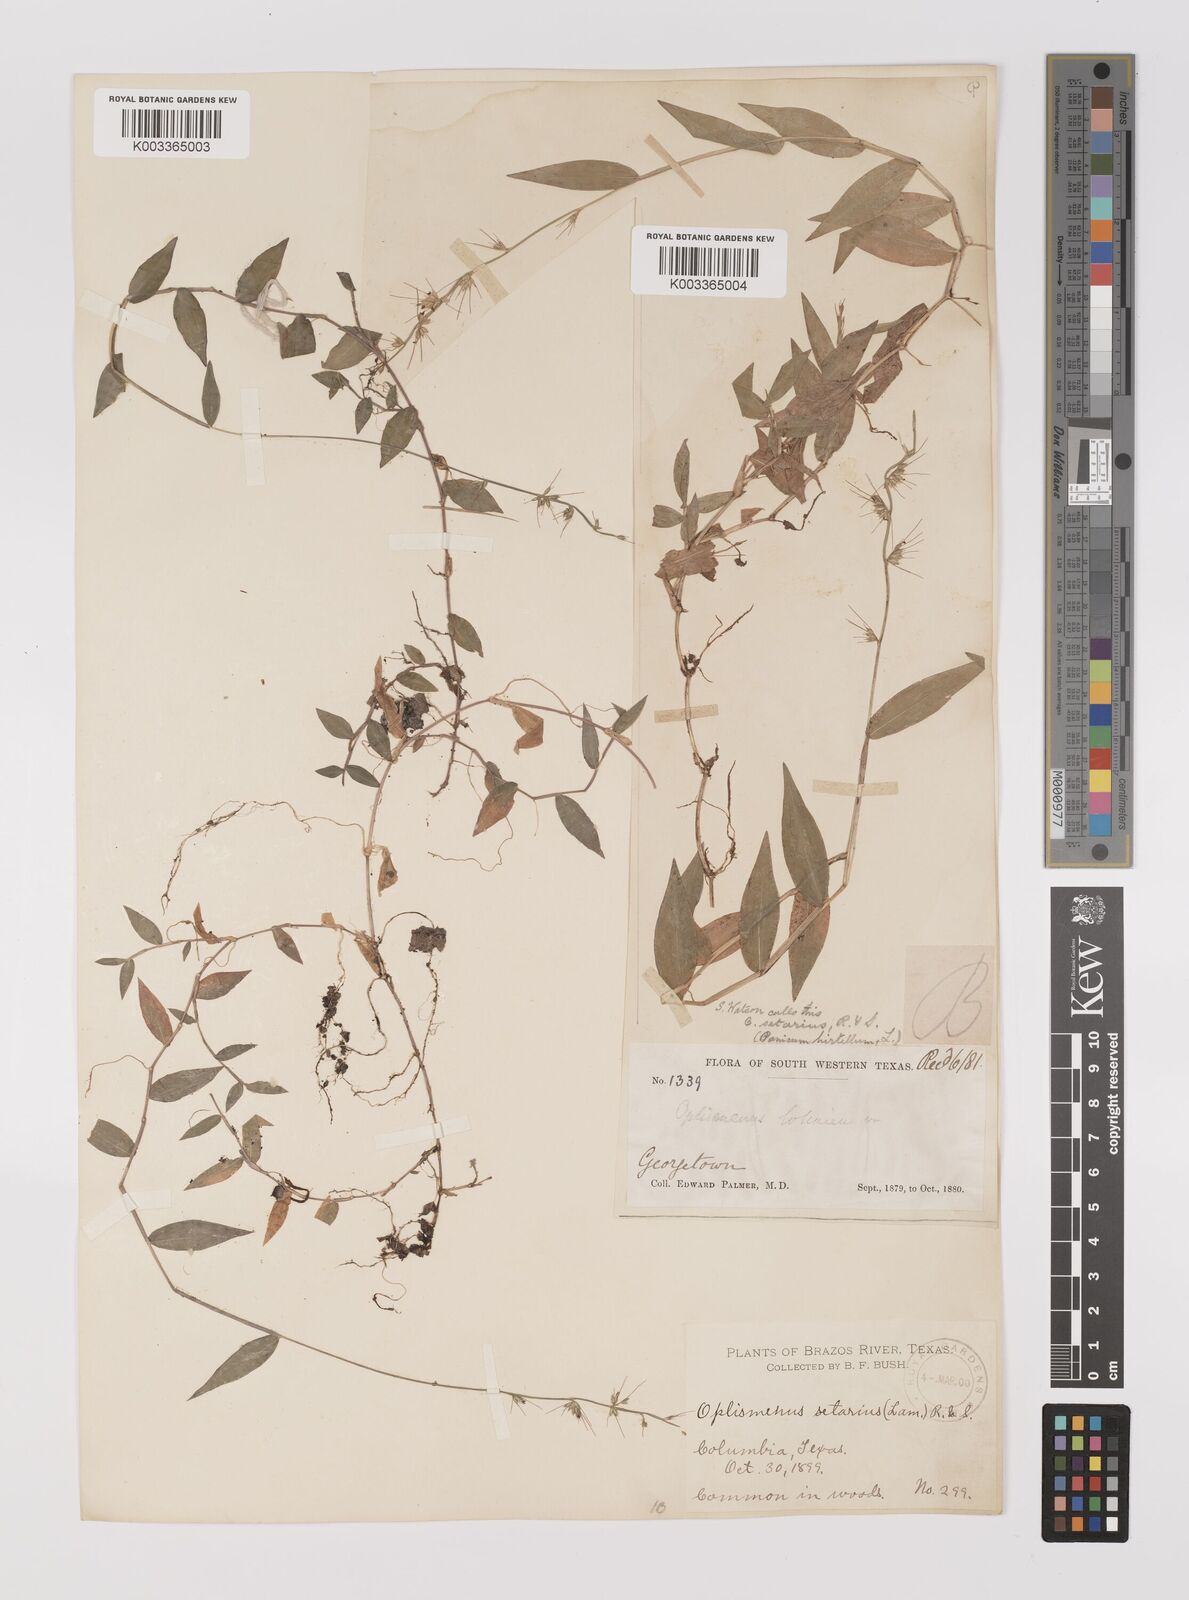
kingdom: Plantae
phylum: Tracheophyta
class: Liliopsida
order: Poales
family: Poaceae
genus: Oplismenus
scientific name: Oplismenus undulatifolius
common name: Wavyleaf basketgrass
